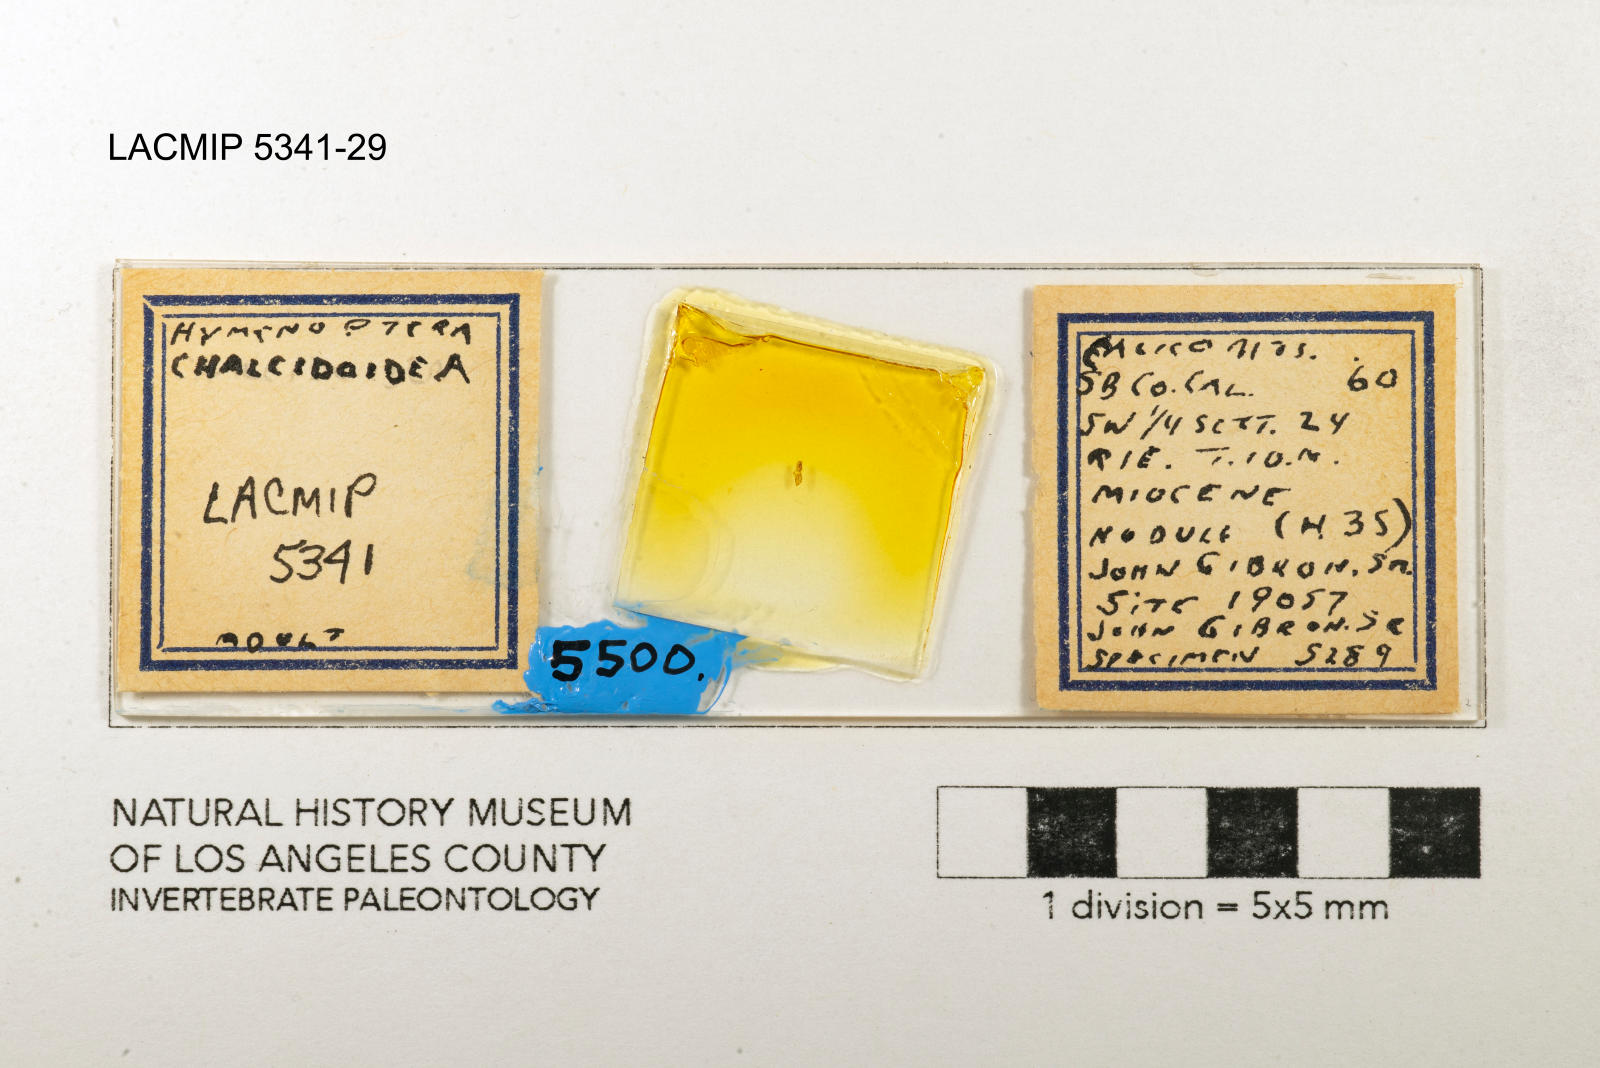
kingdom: Animalia
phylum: Arthropoda
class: Insecta
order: Hymenoptera
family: Chalcididae
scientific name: Chalcididae
